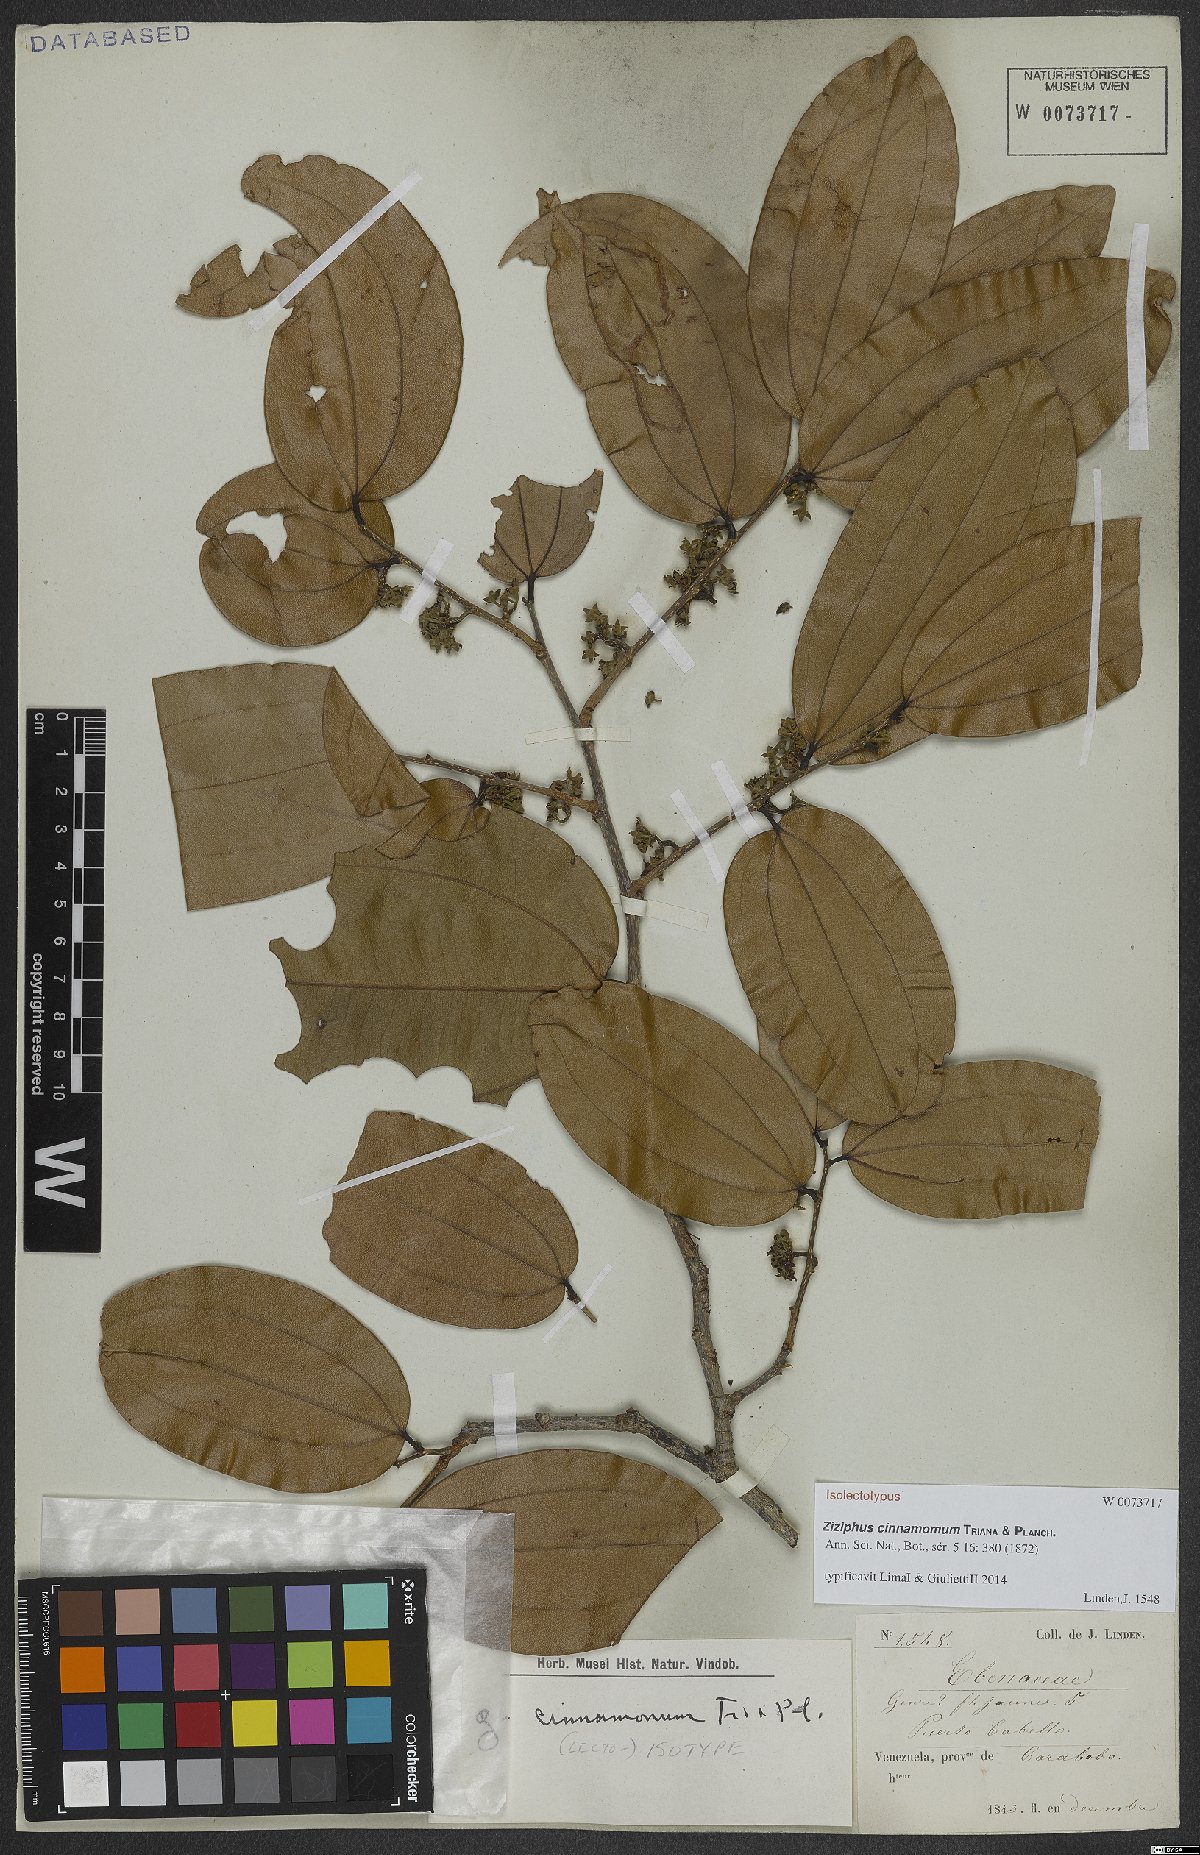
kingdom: Plantae
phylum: Tracheophyta
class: Magnoliopsida
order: Rosales
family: Rhamnaceae
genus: Sarcomphalus
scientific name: Sarcomphalus cinnamomum
